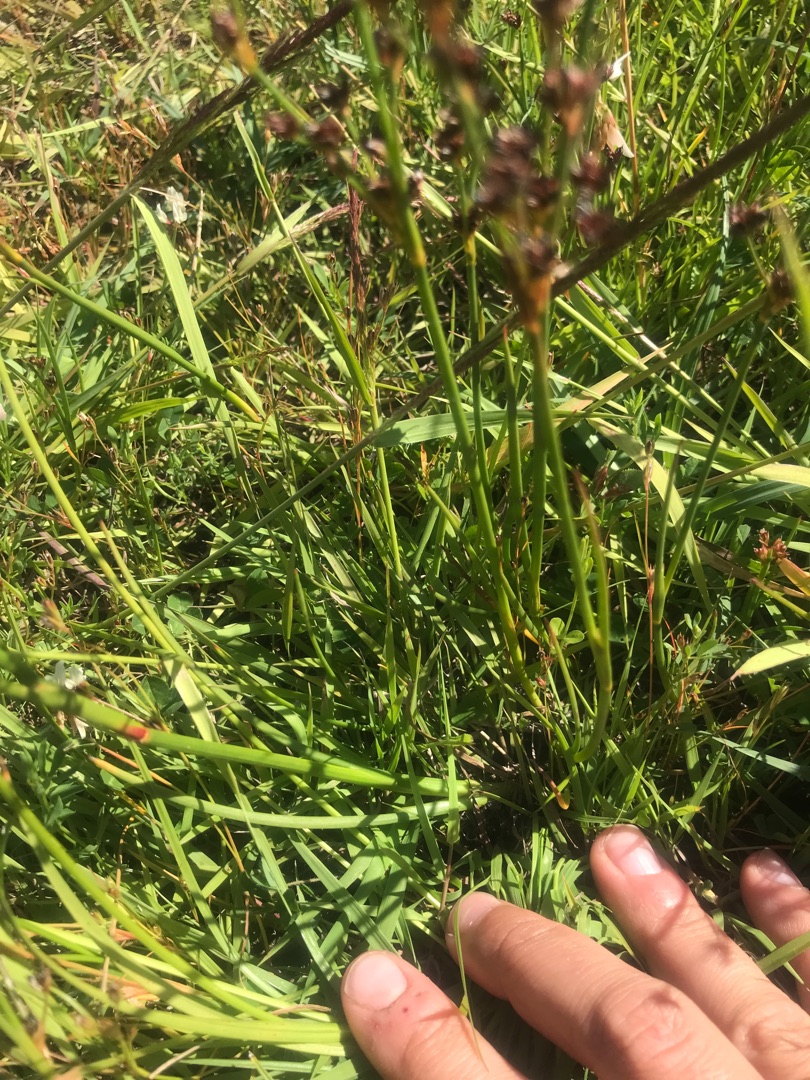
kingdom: Plantae
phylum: Tracheophyta
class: Liliopsida
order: Poales
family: Juncaceae
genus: Juncus
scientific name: Juncus articulatus
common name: Glanskapslet siv
